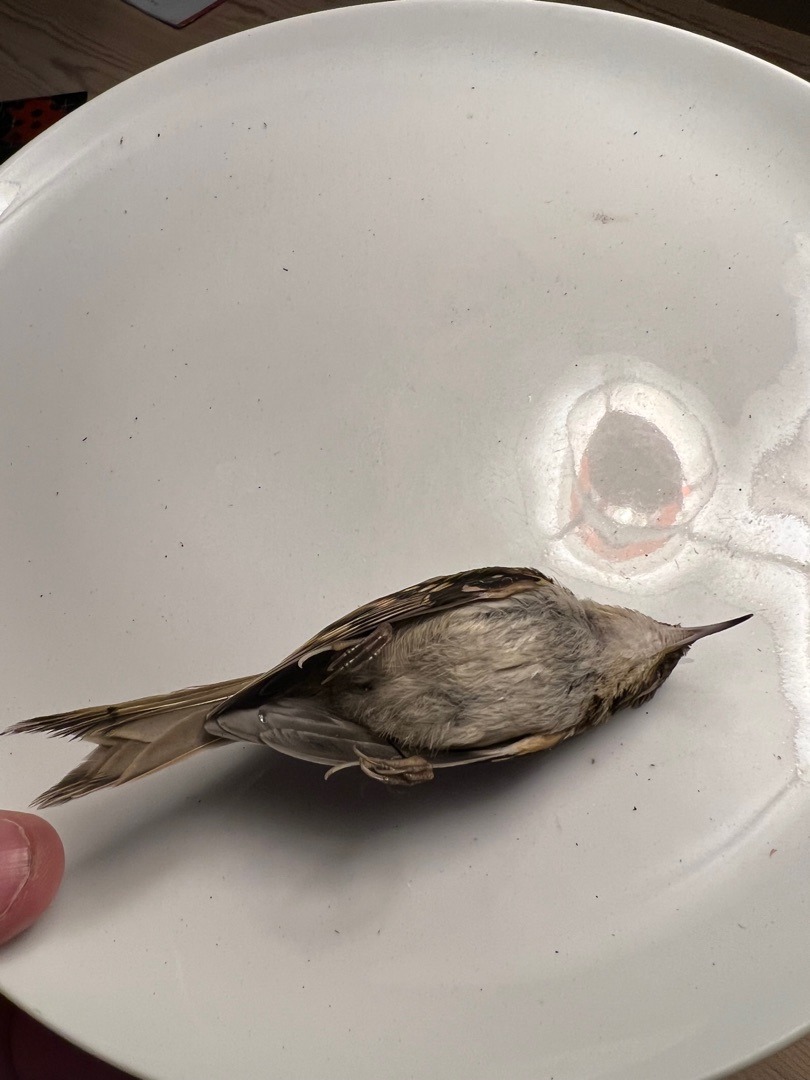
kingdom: Animalia
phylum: Chordata
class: Aves
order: Passeriformes
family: Certhiidae
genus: Certhia
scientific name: Certhia familiaris
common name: Træløber
